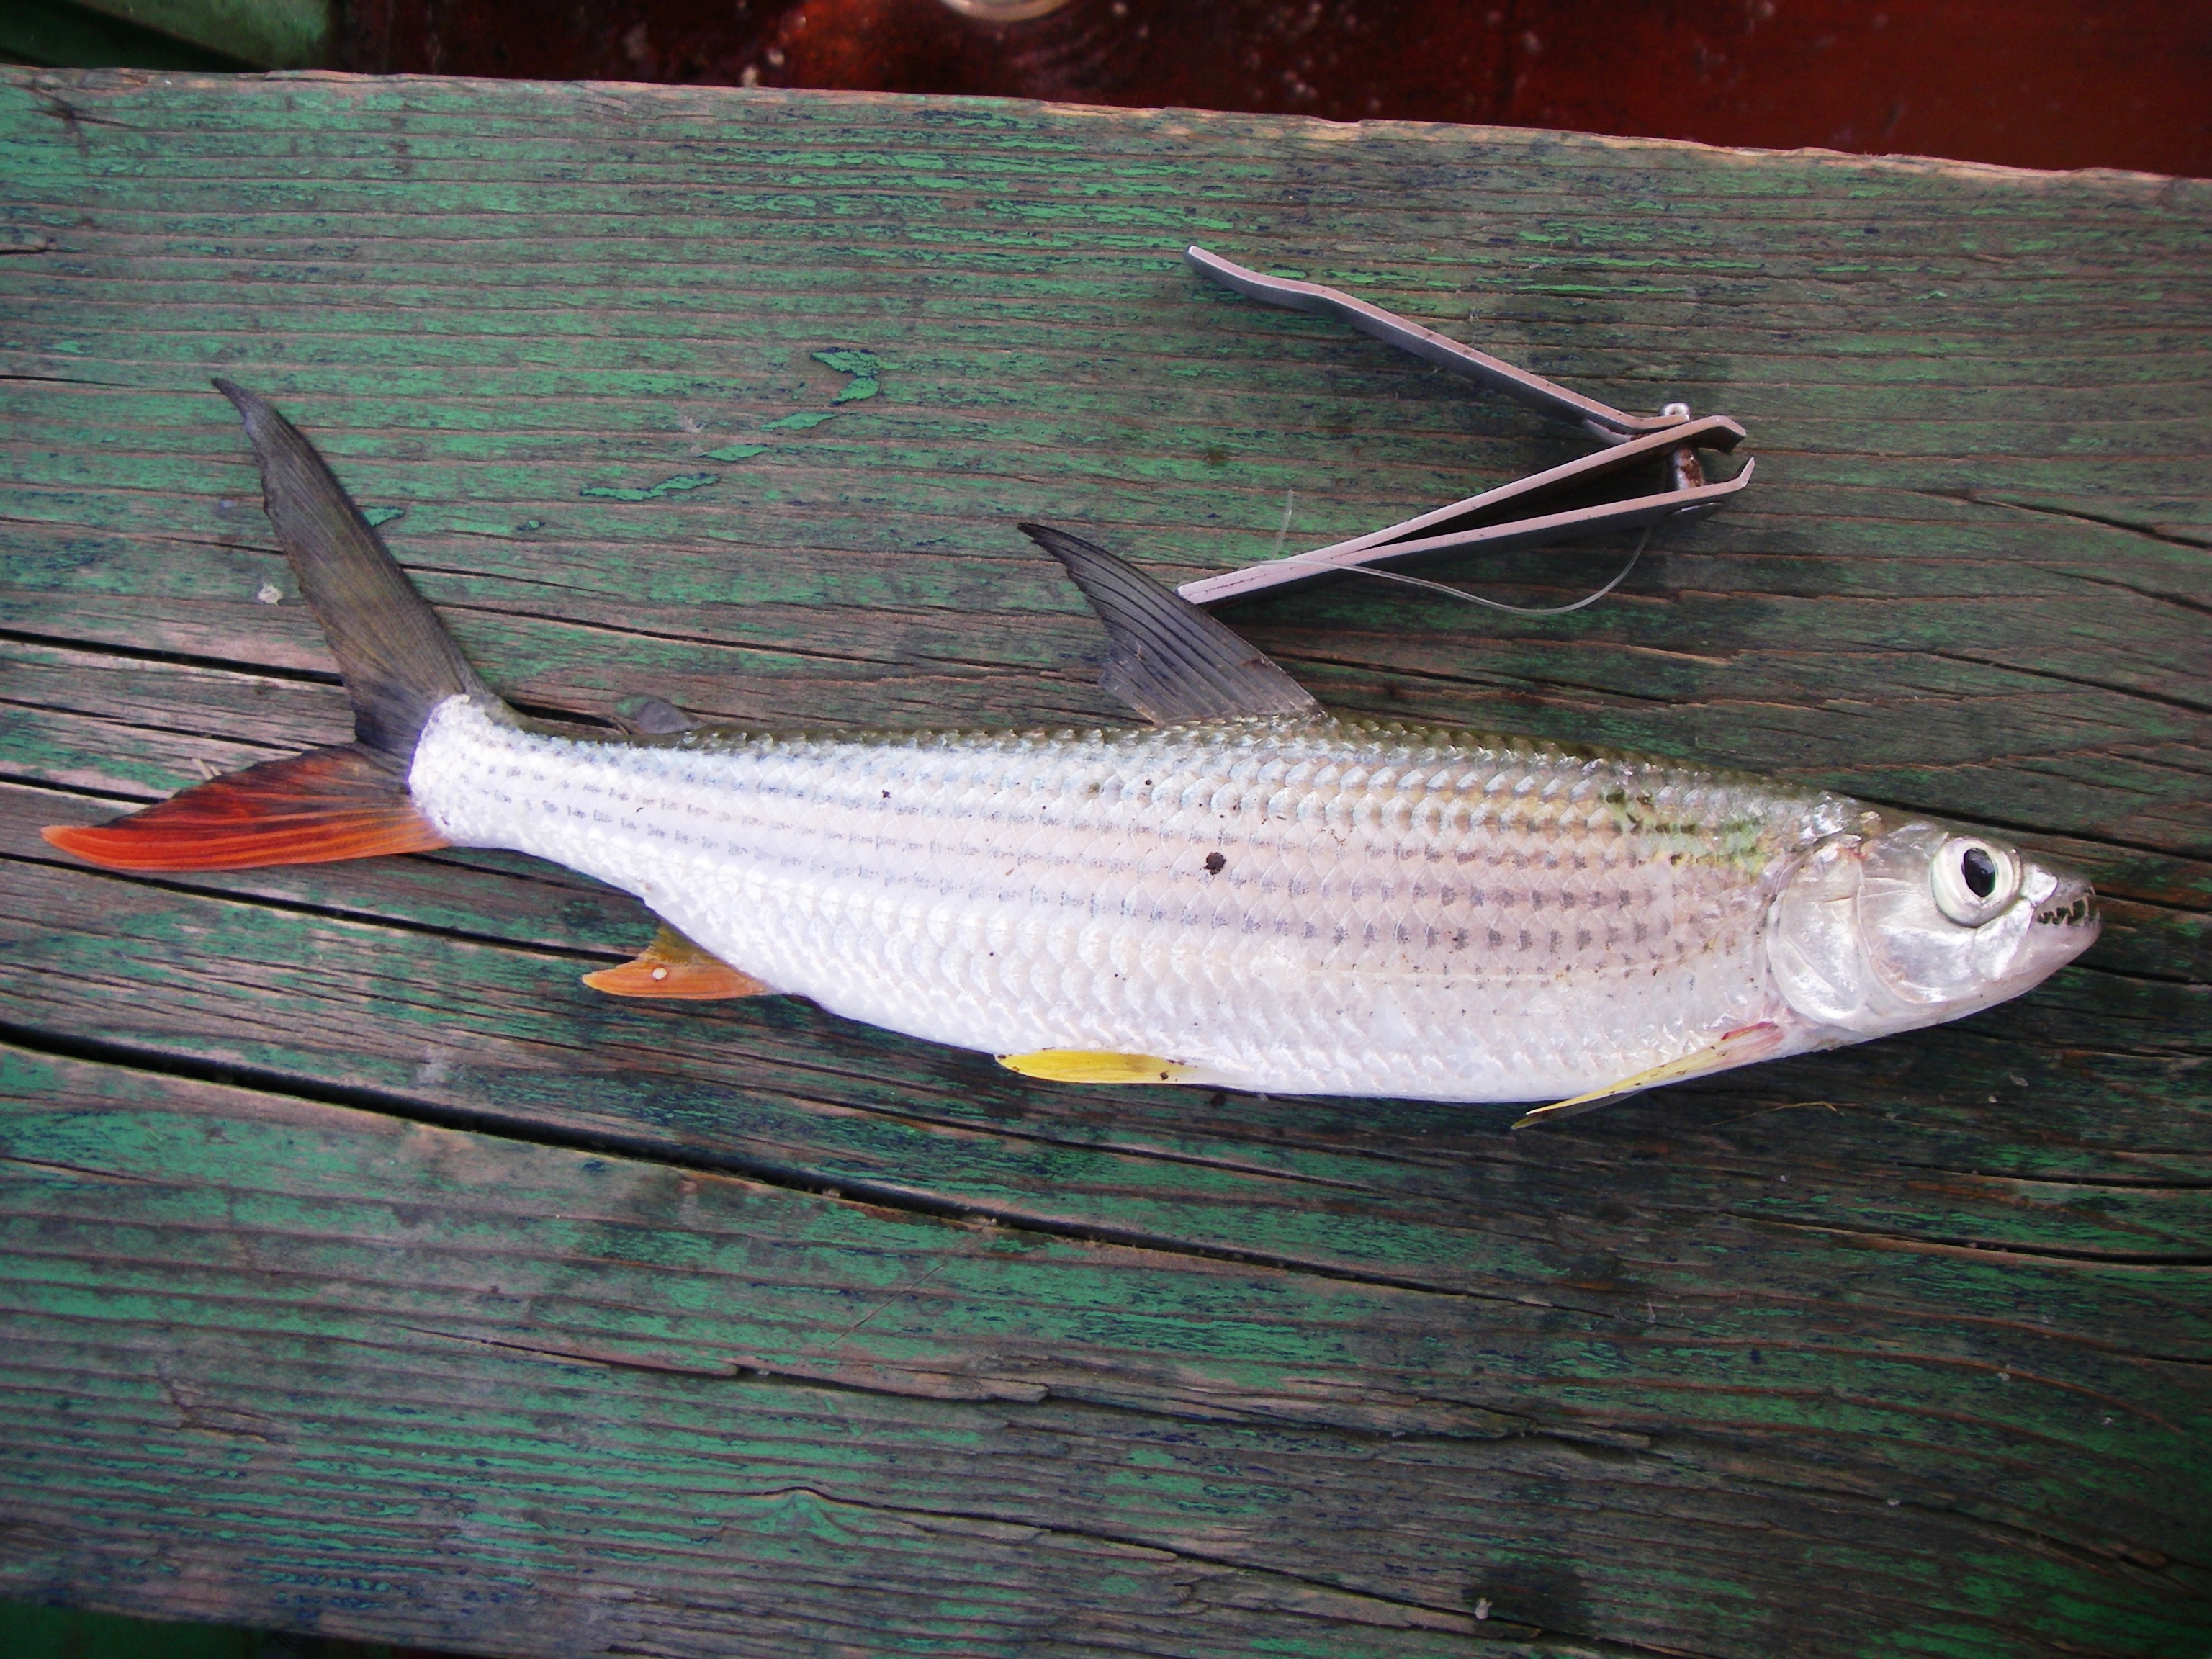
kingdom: Animalia
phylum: Chordata
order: Characiformes
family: Alestidae
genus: Hydrocynus
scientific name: Hydrocynus forskahlii
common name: Elongate tigerfish
